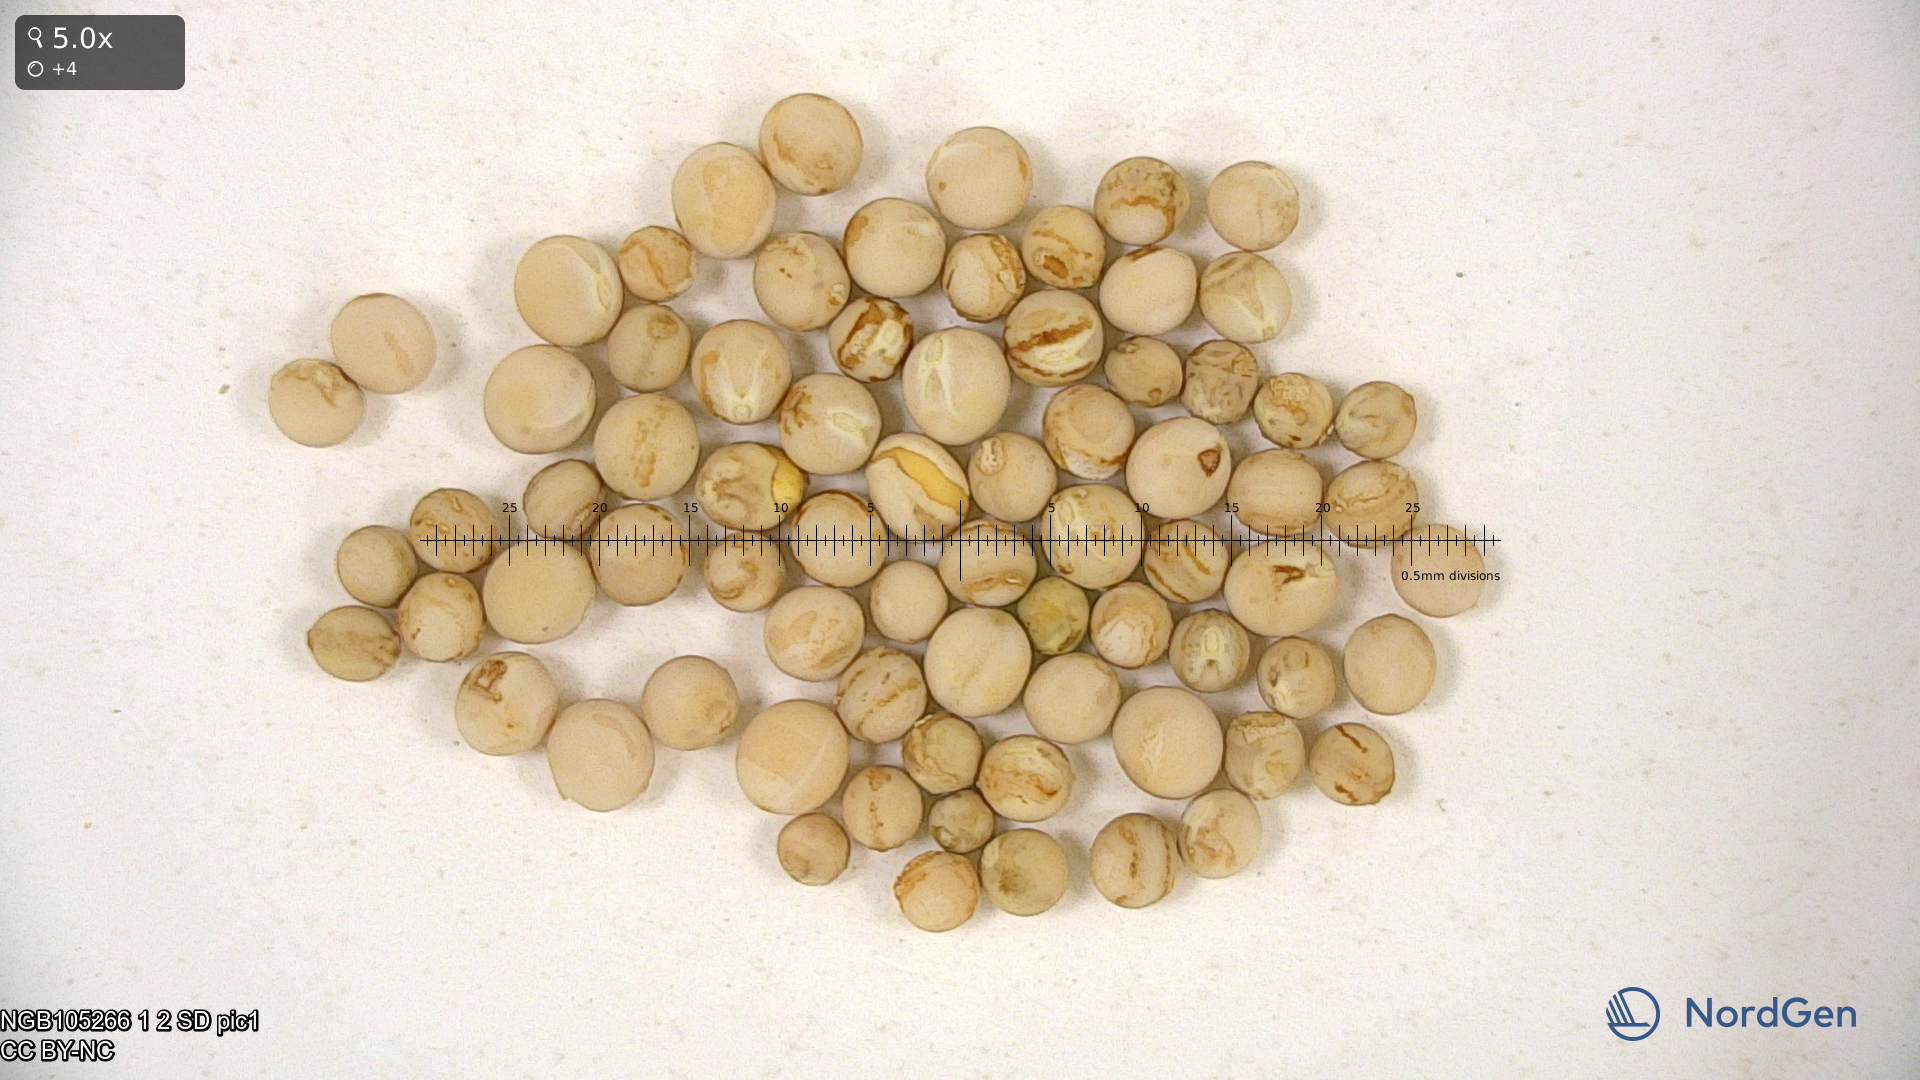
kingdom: Plantae
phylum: Tracheophyta
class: Magnoliopsida
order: Fabales
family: Fabaceae
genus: Lathyrus
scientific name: Lathyrus oleraceus
